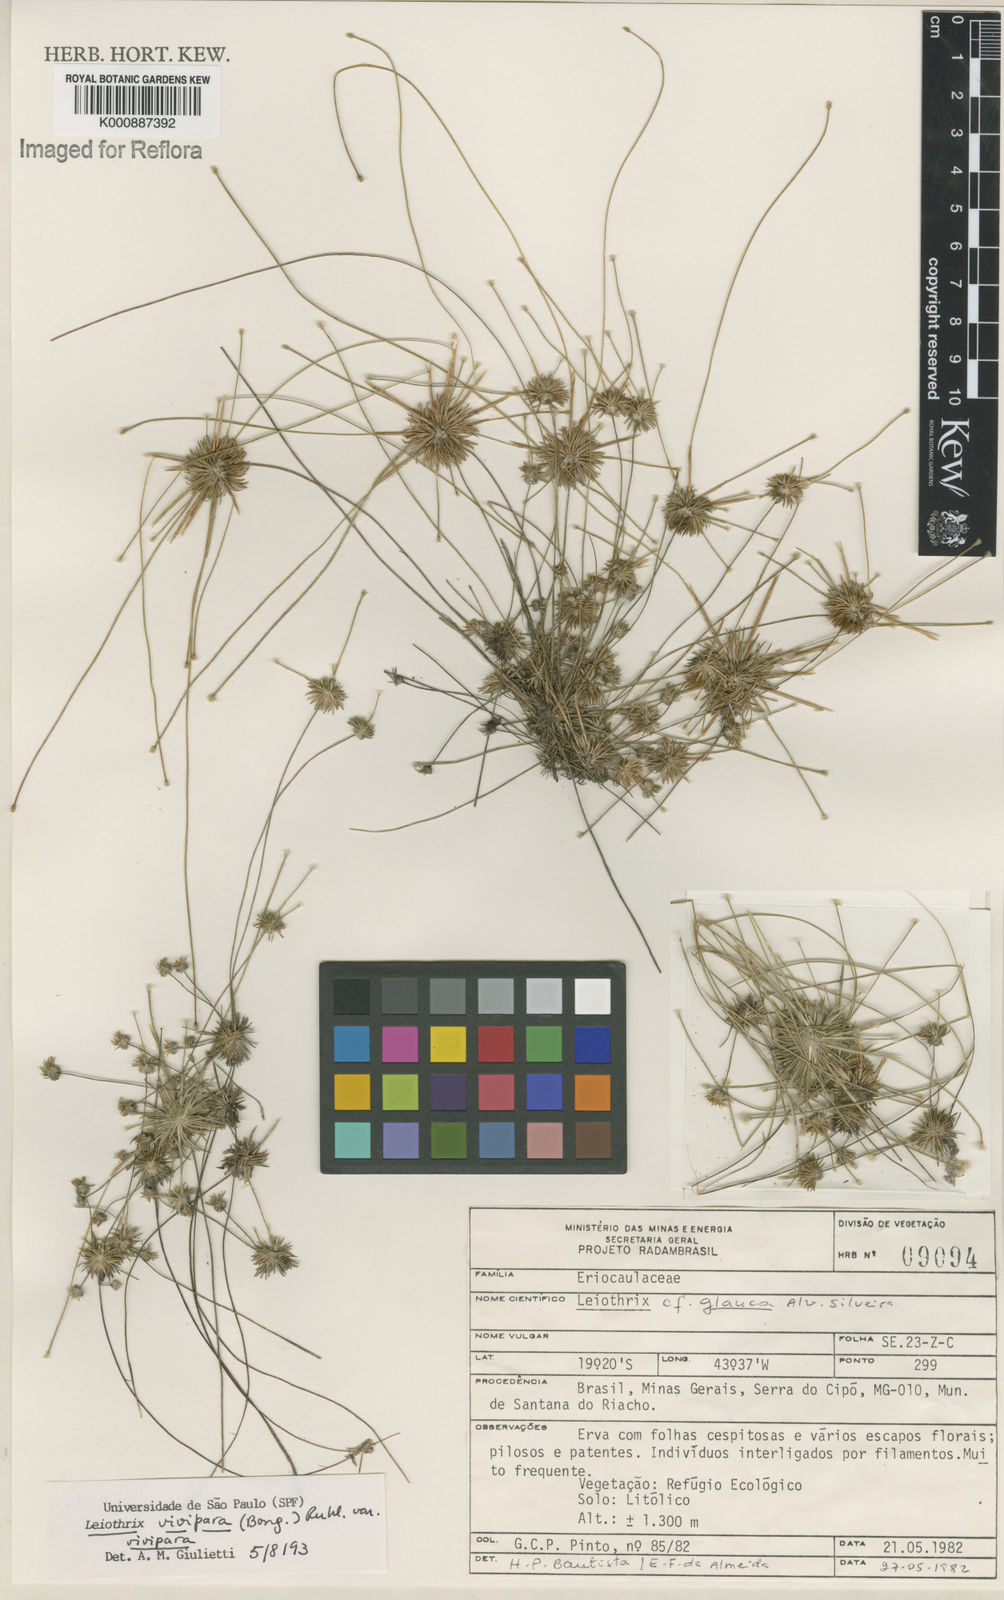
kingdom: Plantae
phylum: Tracheophyta
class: Liliopsida
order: Poales
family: Eriocaulaceae
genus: Leiothrix
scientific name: Leiothrix
